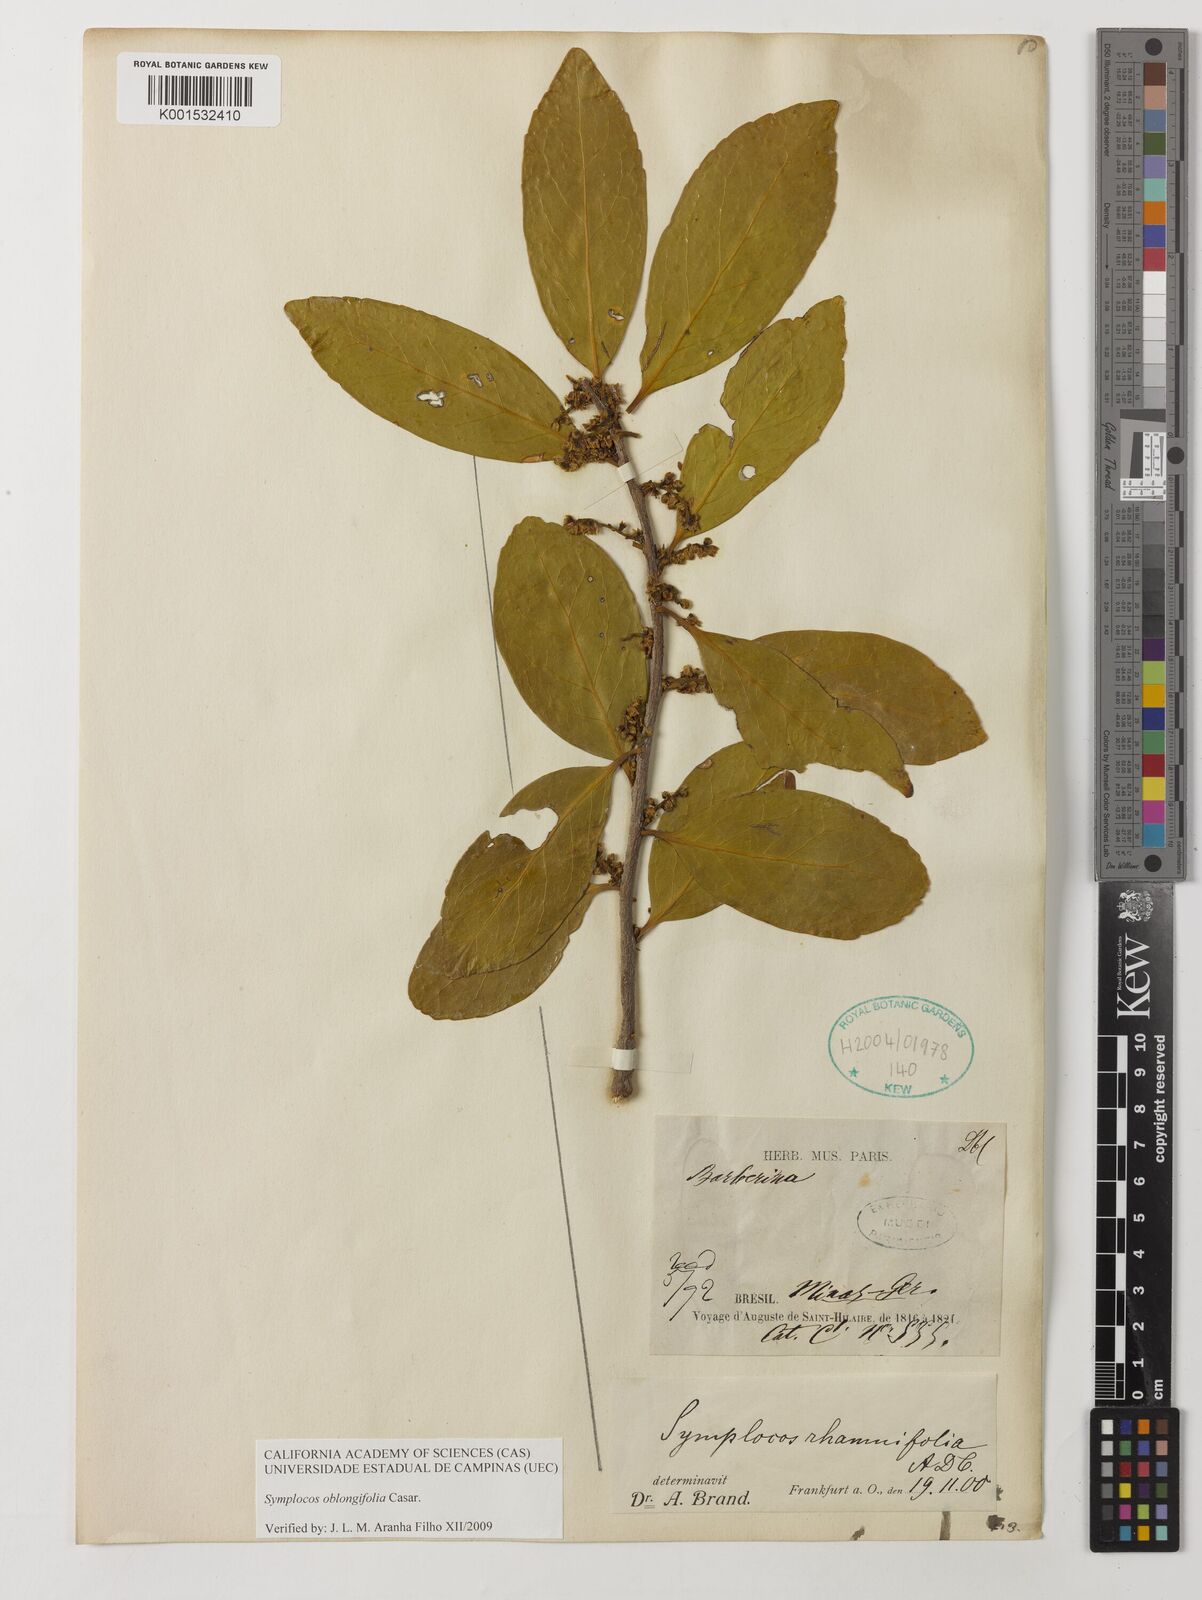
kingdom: Plantae
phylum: Tracheophyta
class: Magnoliopsida
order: Ericales
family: Symplocaceae
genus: Symplocos
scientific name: Symplocos oblongifolia
